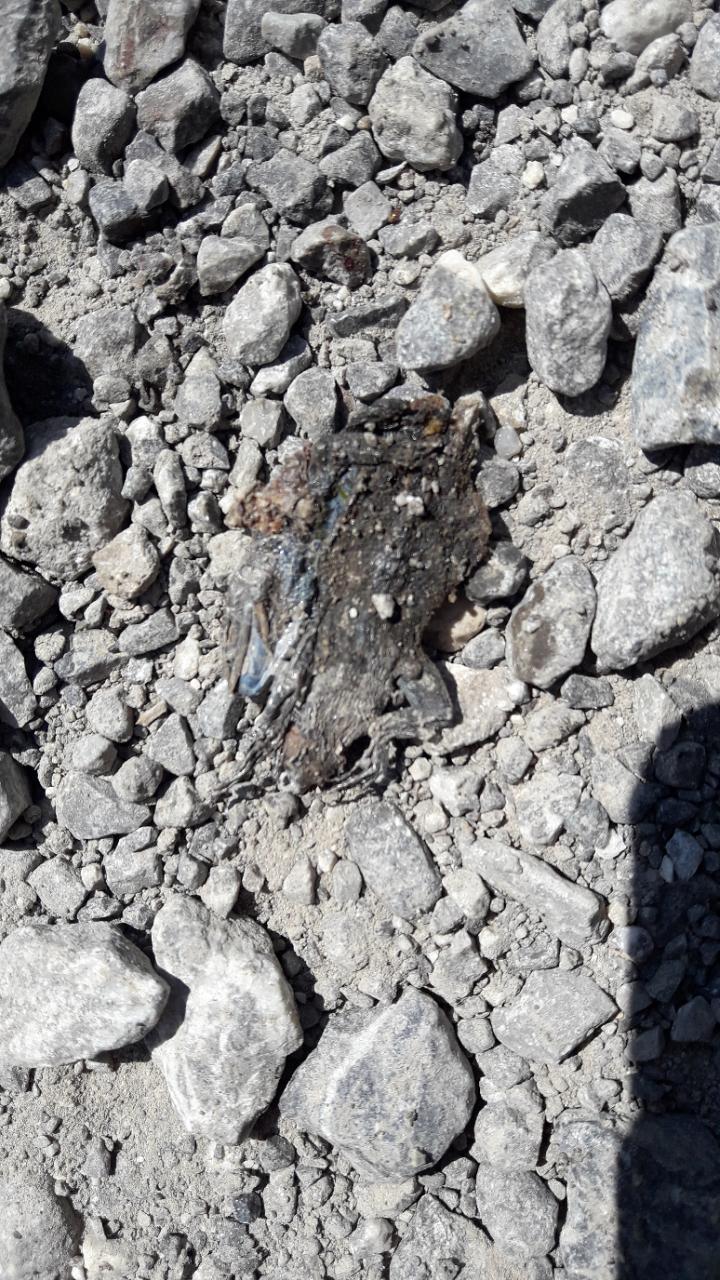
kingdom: Animalia
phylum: Chordata
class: Amphibia
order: Anura
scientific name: Anura
